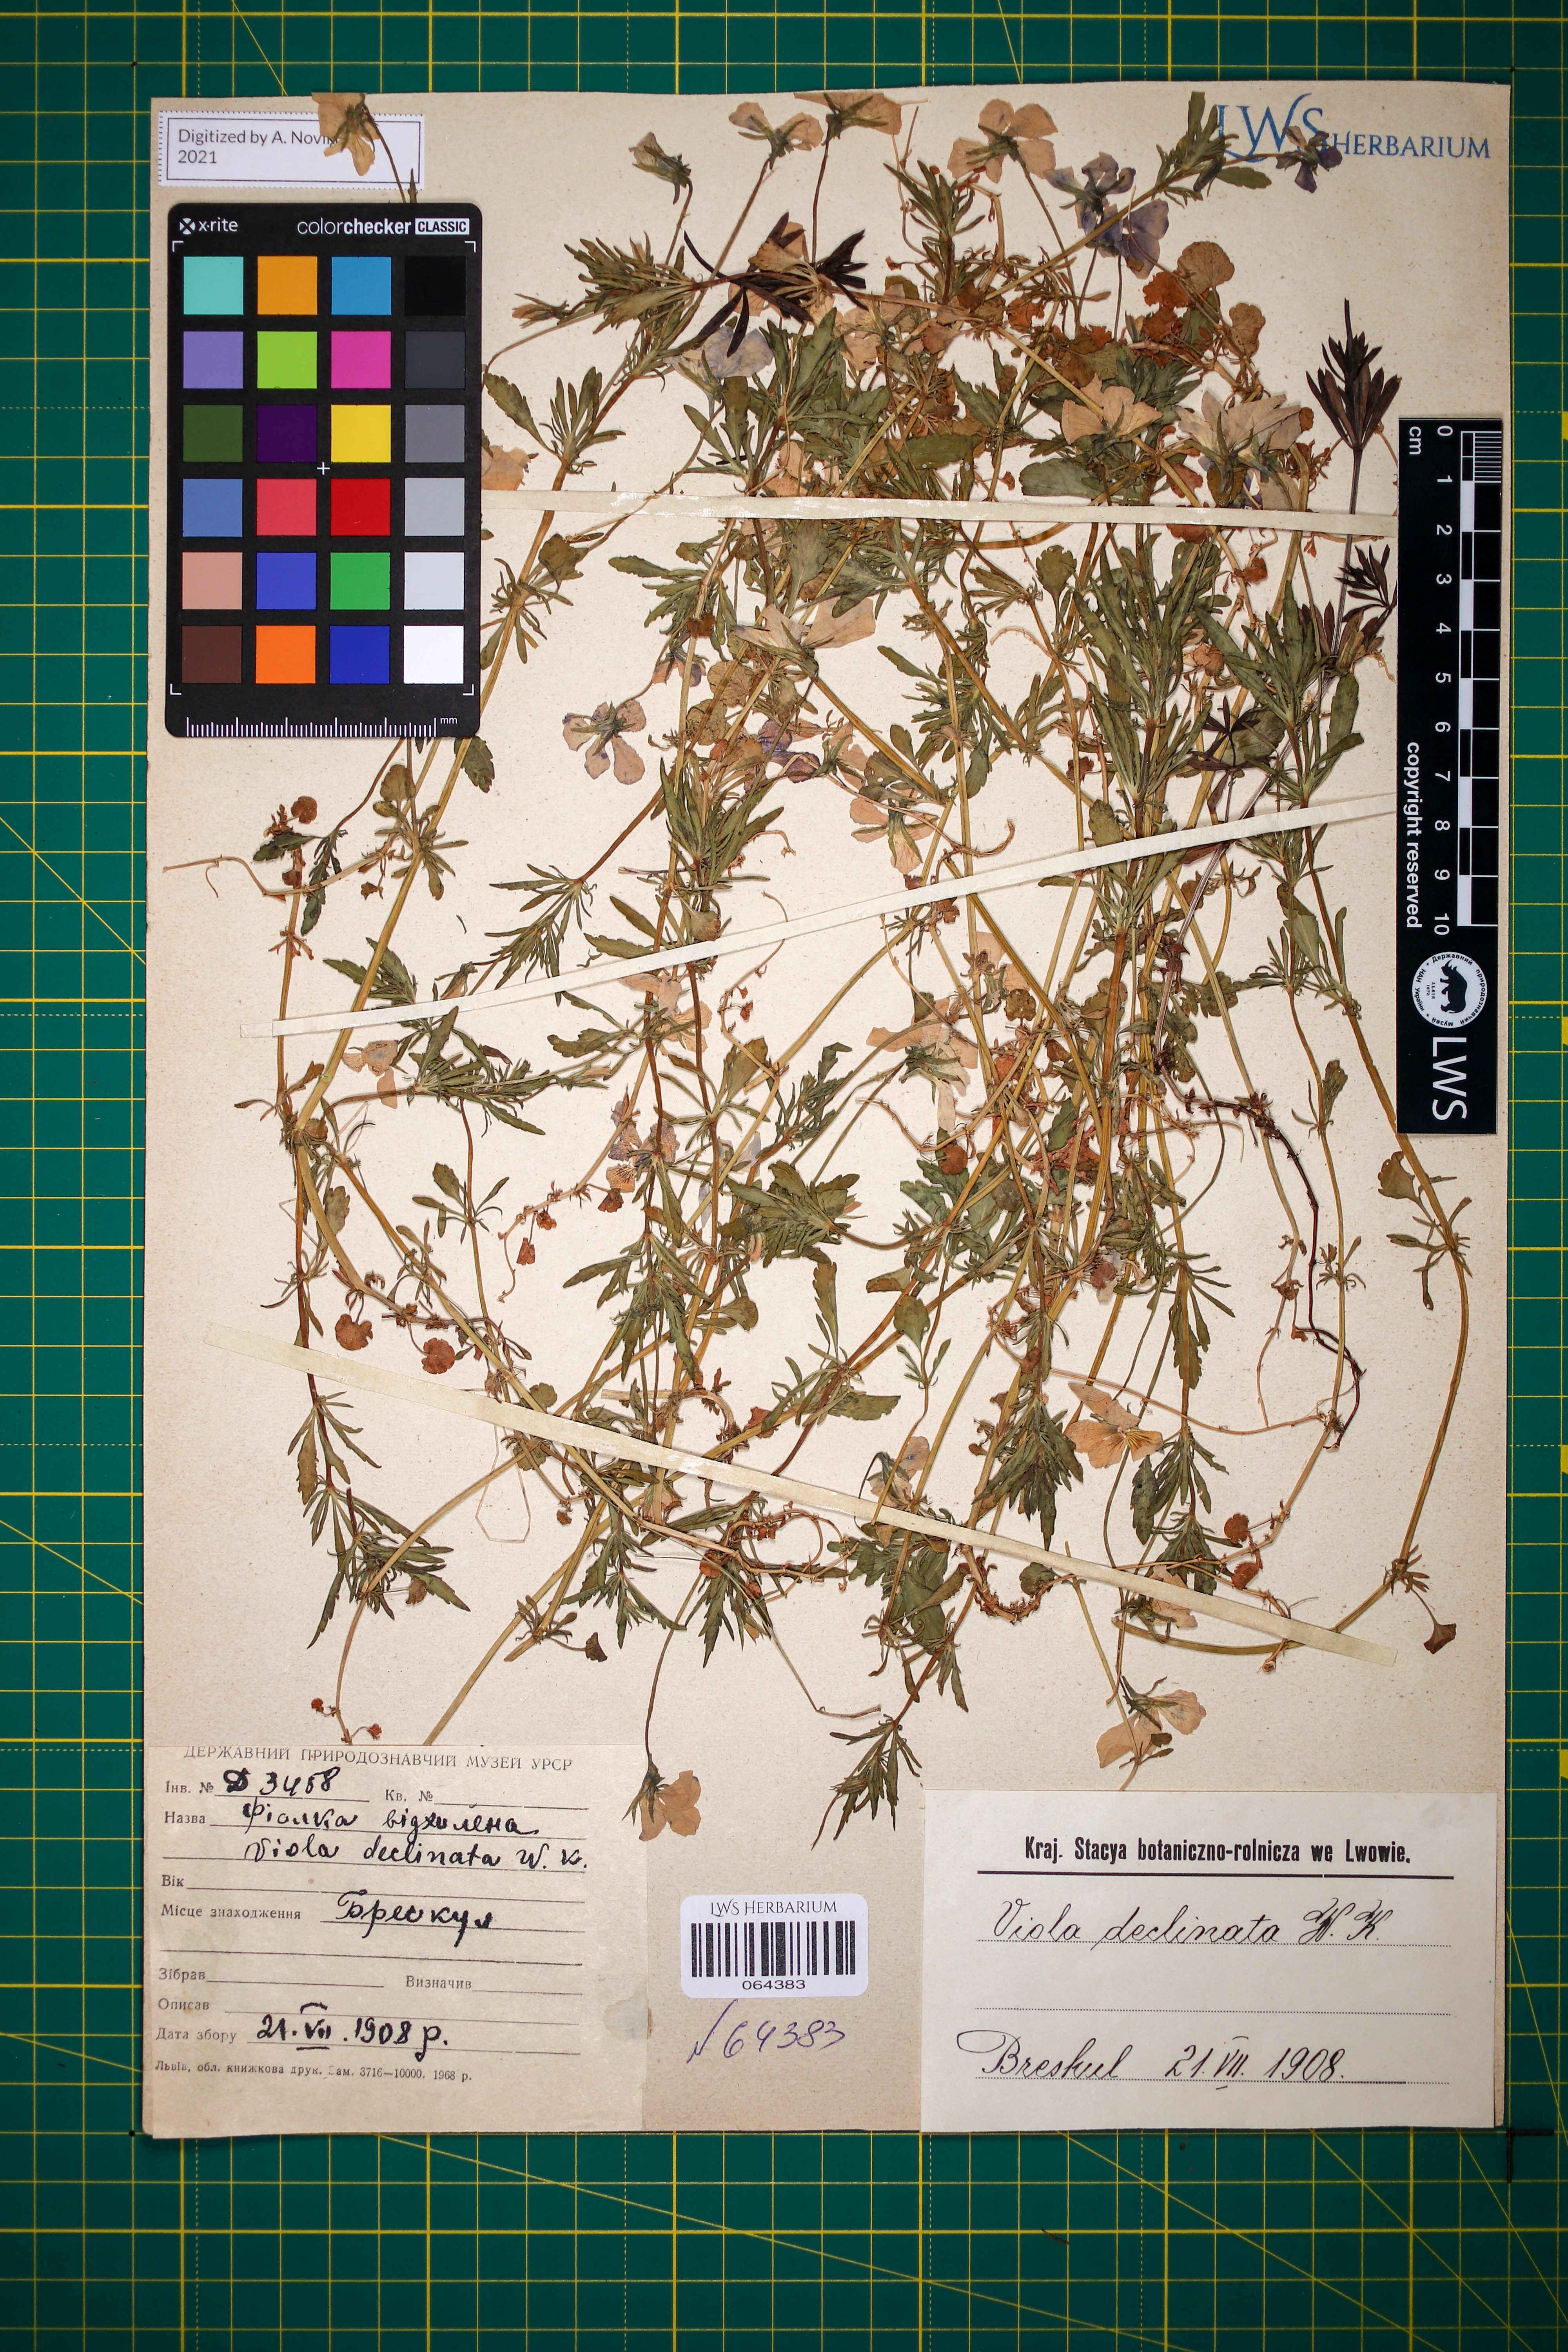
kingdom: Plantae
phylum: Tracheophyta
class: Magnoliopsida
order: Malpighiales
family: Violaceae
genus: Viola
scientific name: Viola declinata
